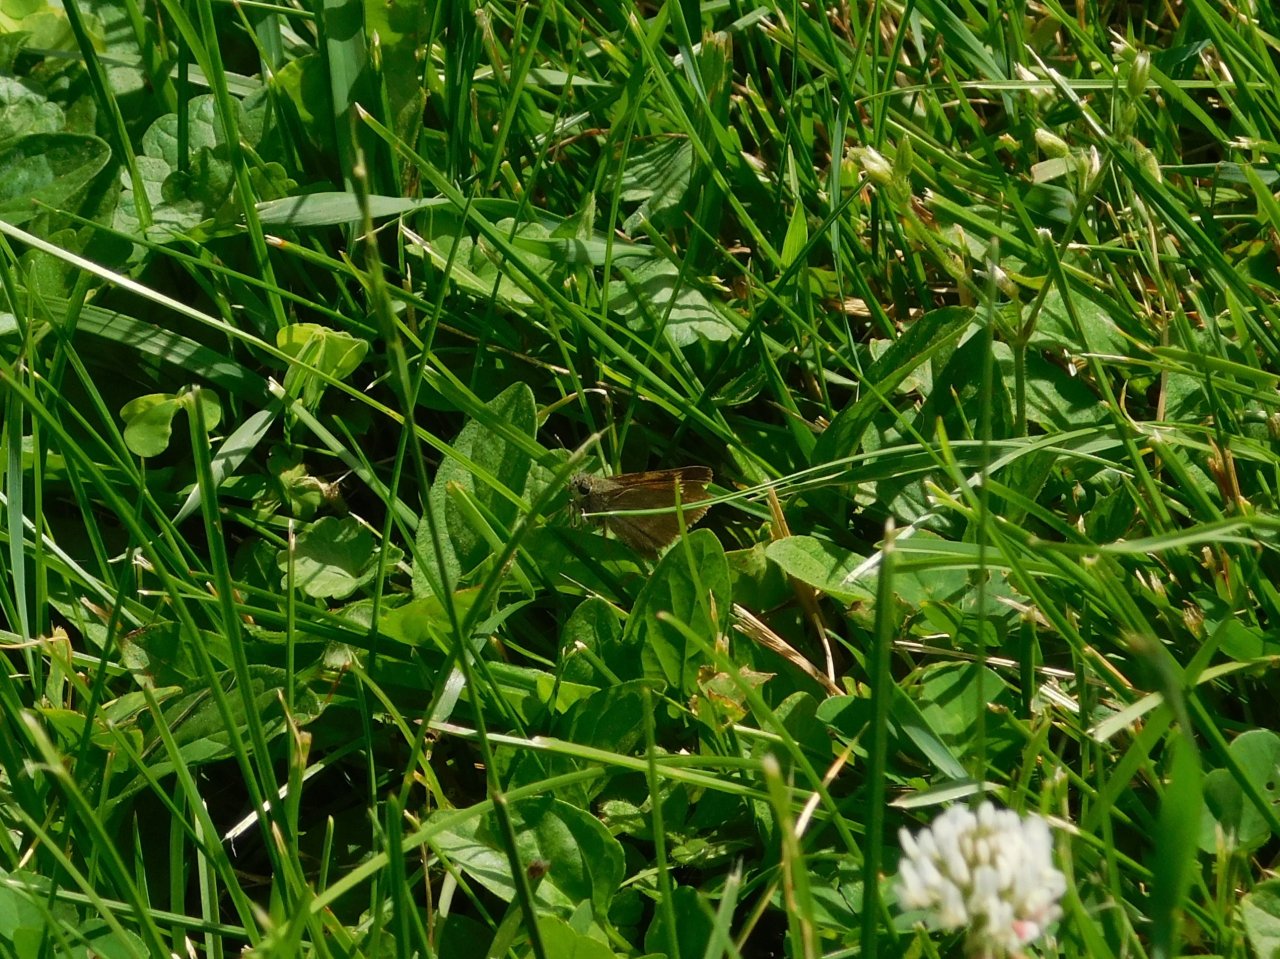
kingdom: Animalia
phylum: Arthropoda
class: Insecta
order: Lepidoptera
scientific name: Lepidoptera
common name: Butterflies
